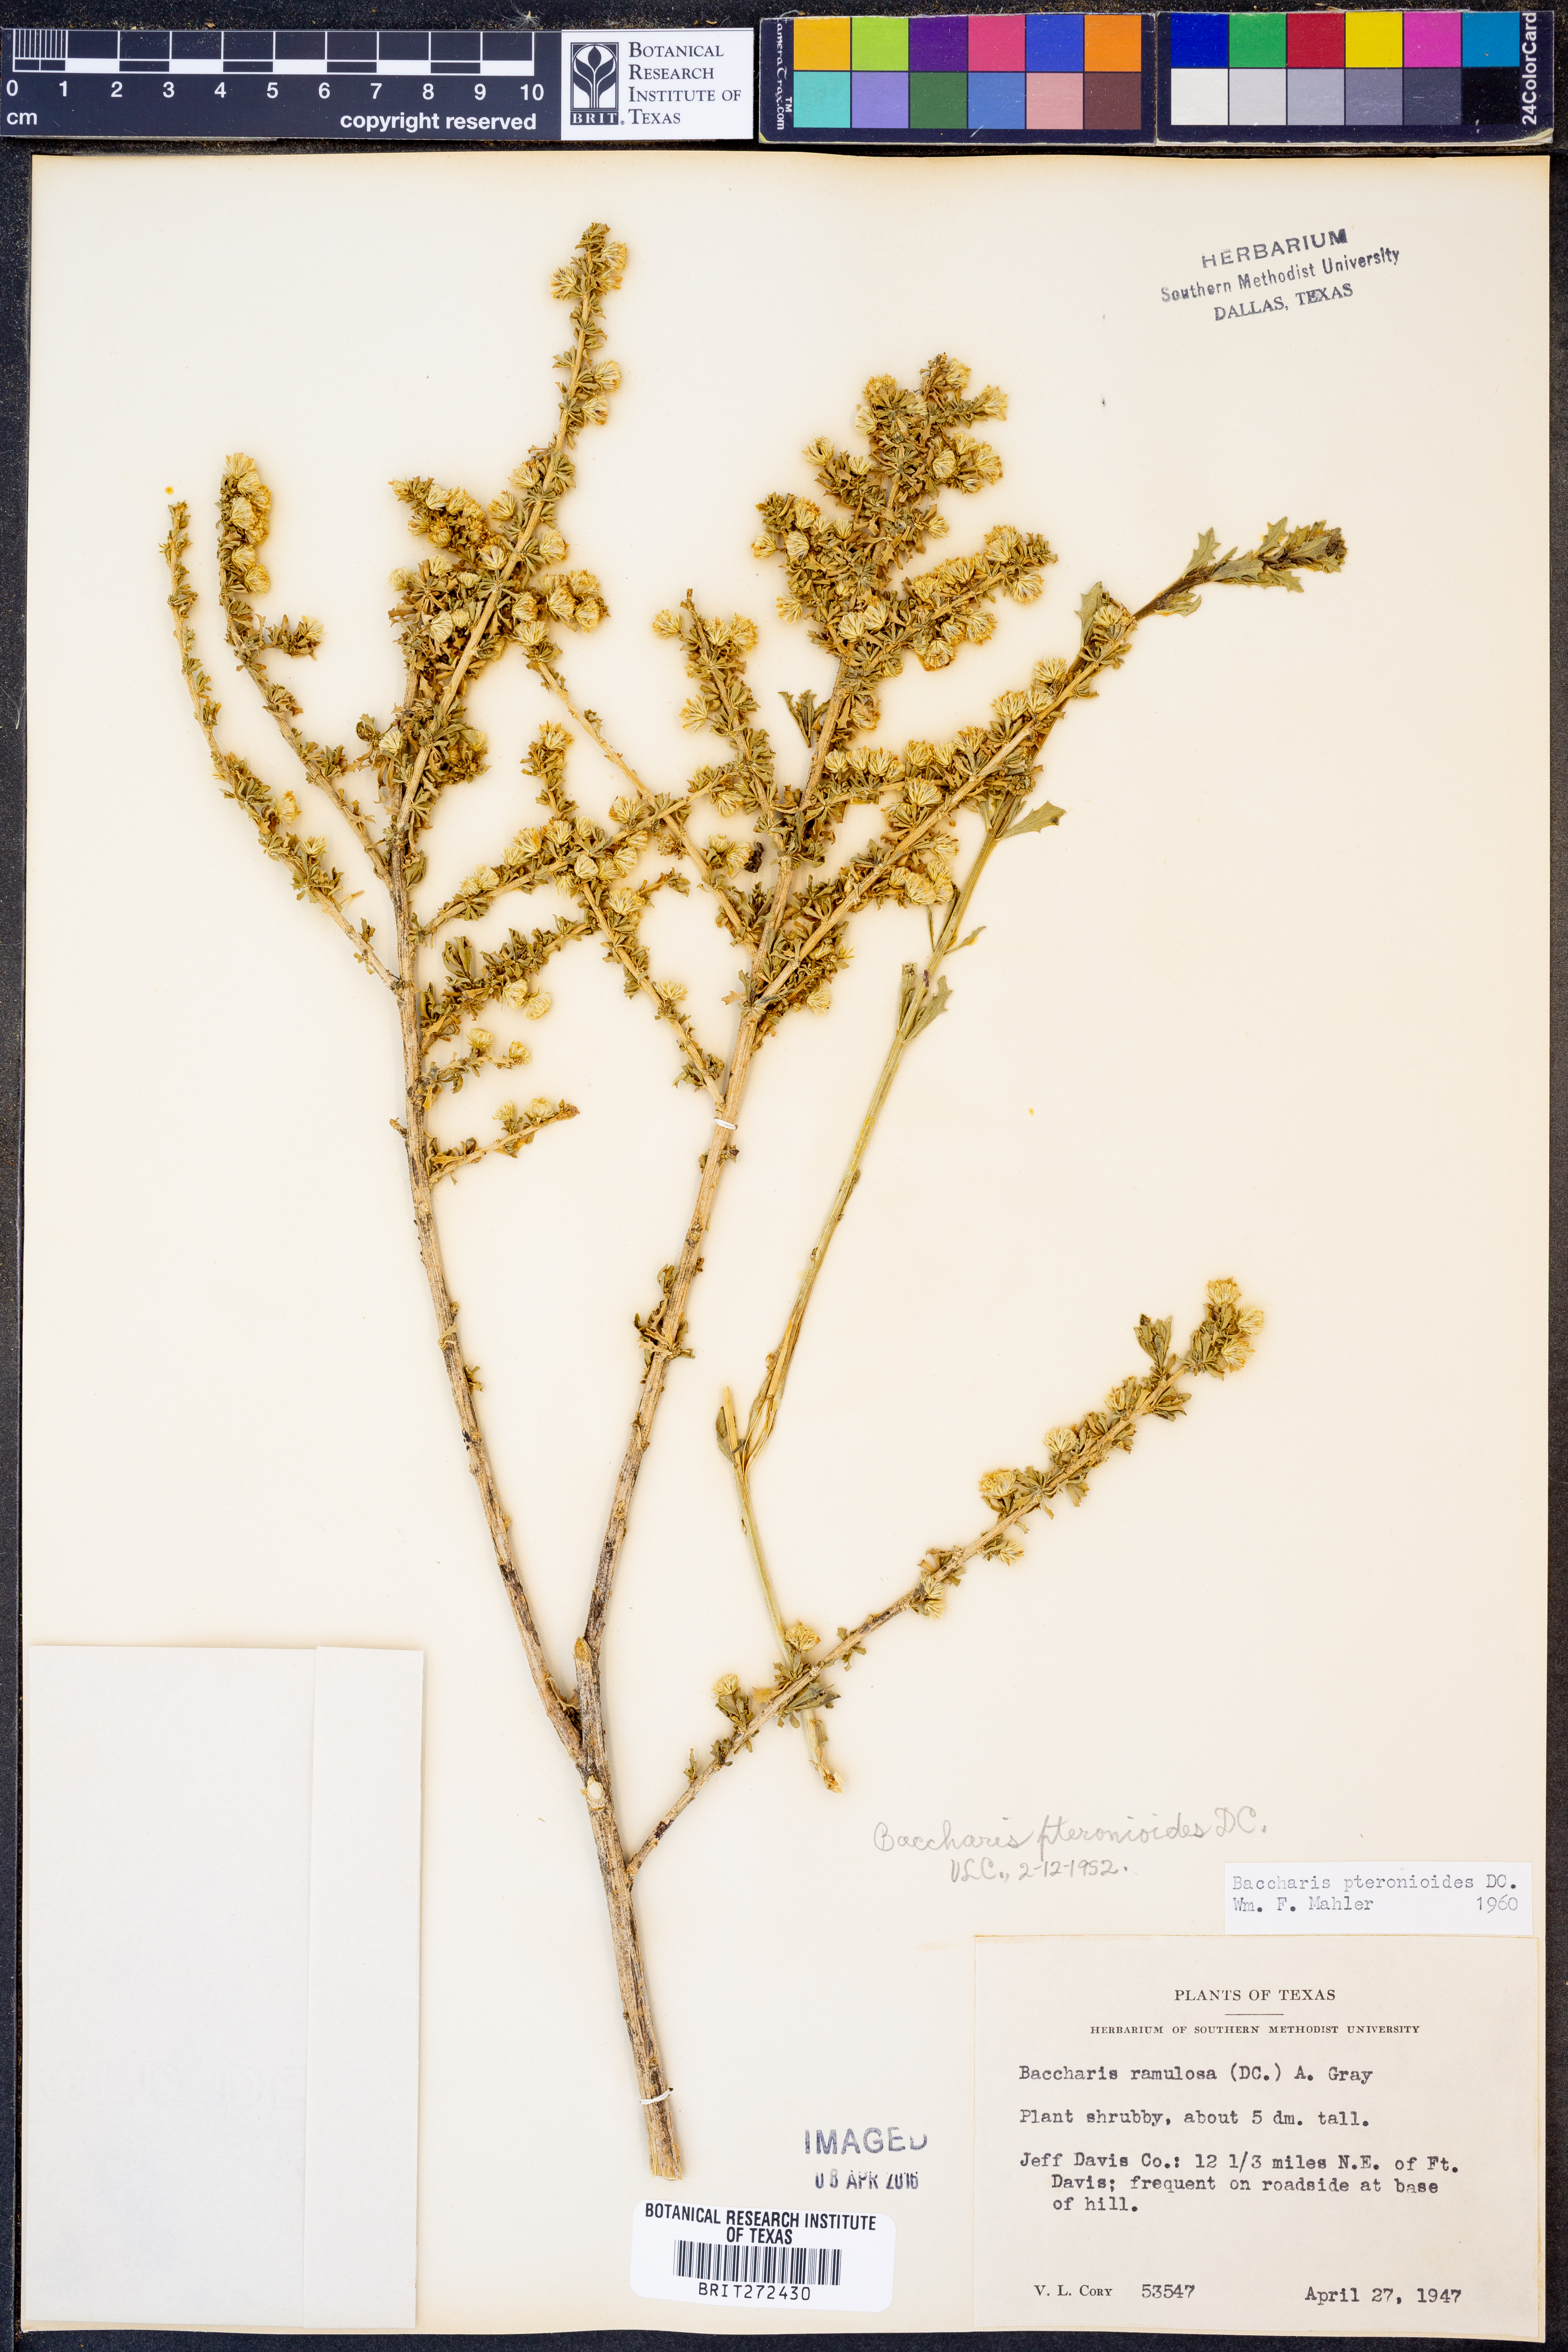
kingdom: Plantae
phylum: Tracheophyta
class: Magnoliopsida
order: Asterales
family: Asteraceae
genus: Baccharis
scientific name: Baccharis pteronioides
